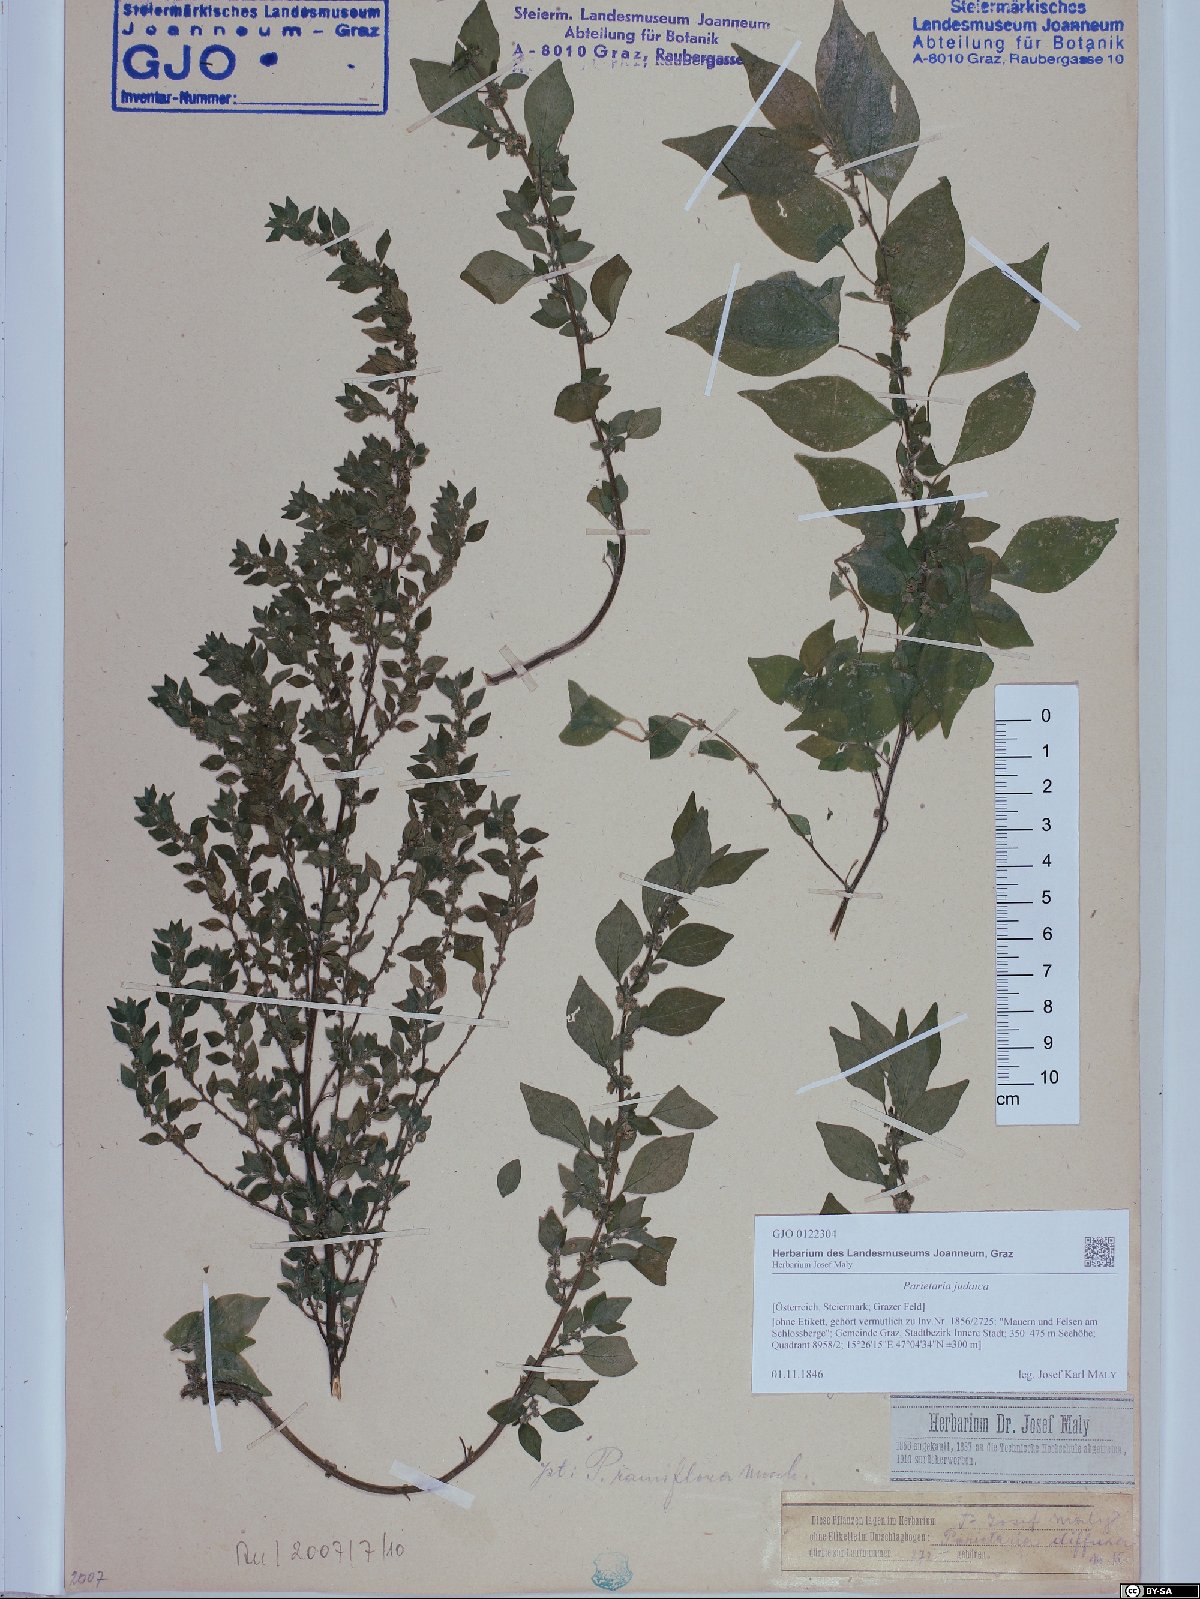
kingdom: Plantae
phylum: Tracheophyta
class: Magnoliopsida
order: Rosales
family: Urticaceae
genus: Parietaria
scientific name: Parietaria judaica
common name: Pellitory-of-the-wall
